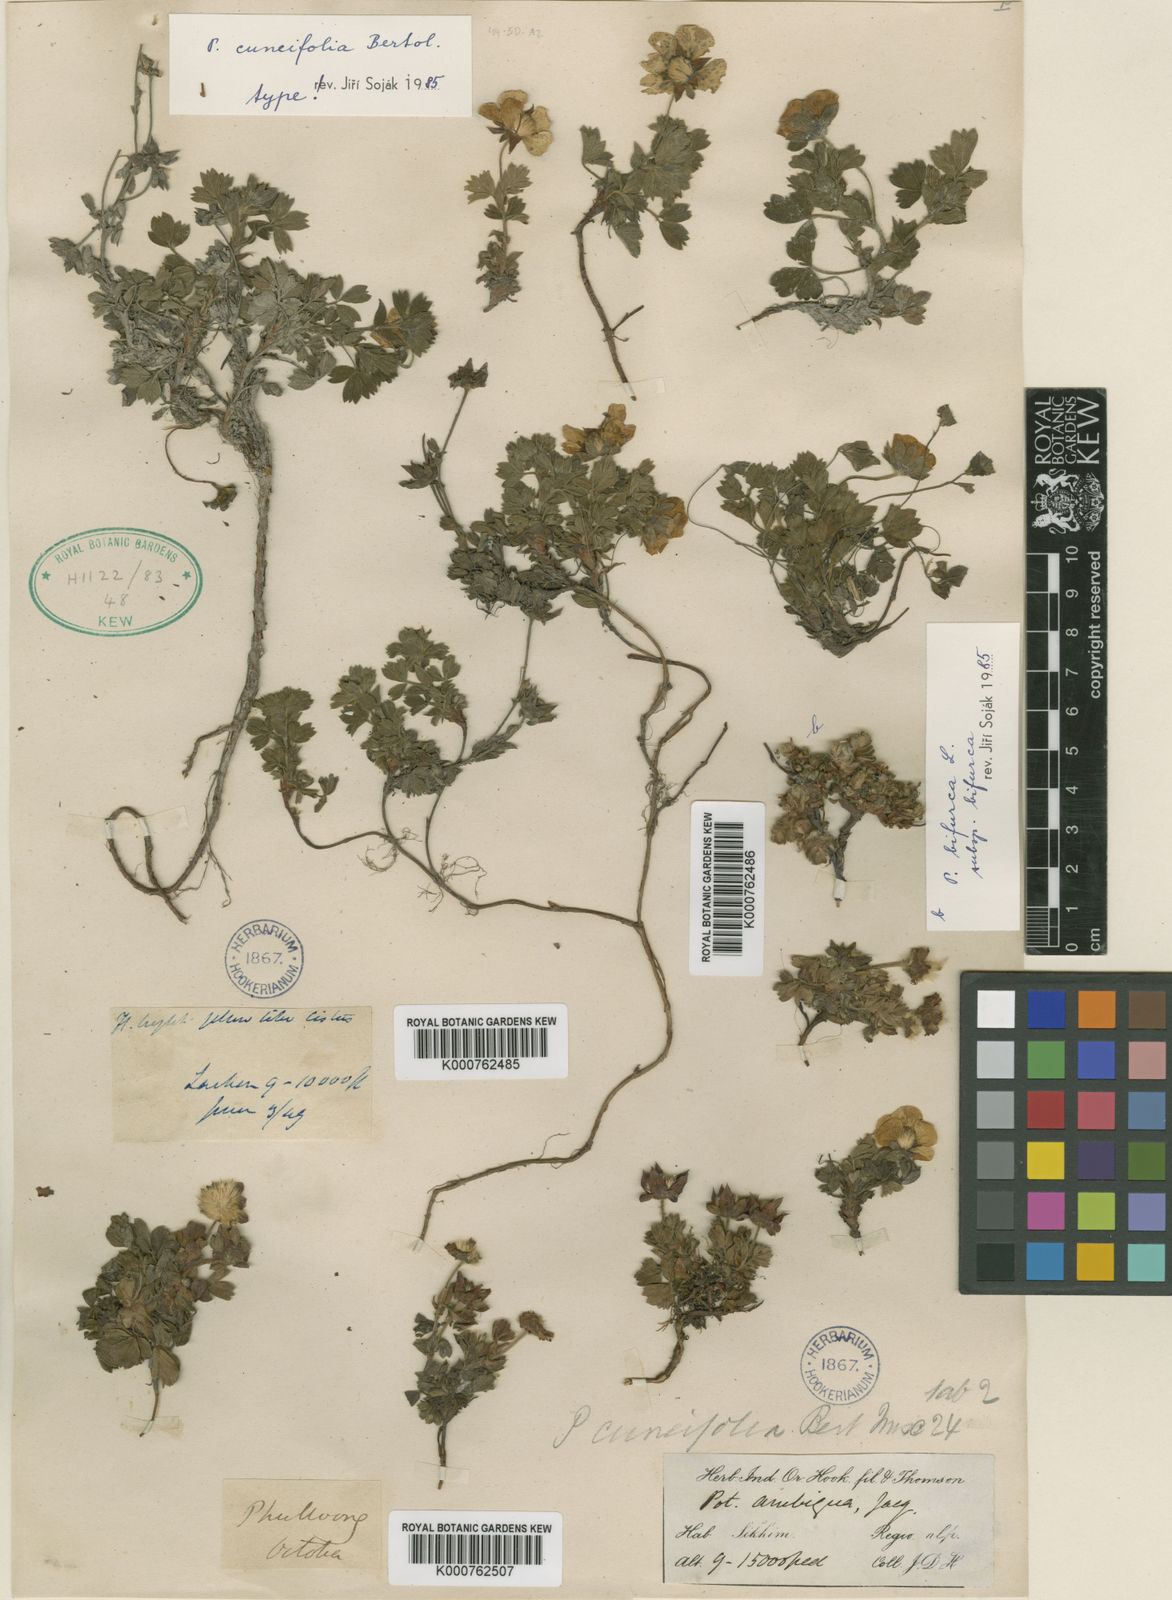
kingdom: Plantae
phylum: Tracheophyta
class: Magnoliopsida
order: Rosales
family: Rosaceae
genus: Sibbaldia
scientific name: Sibbaldia cuneifolia
